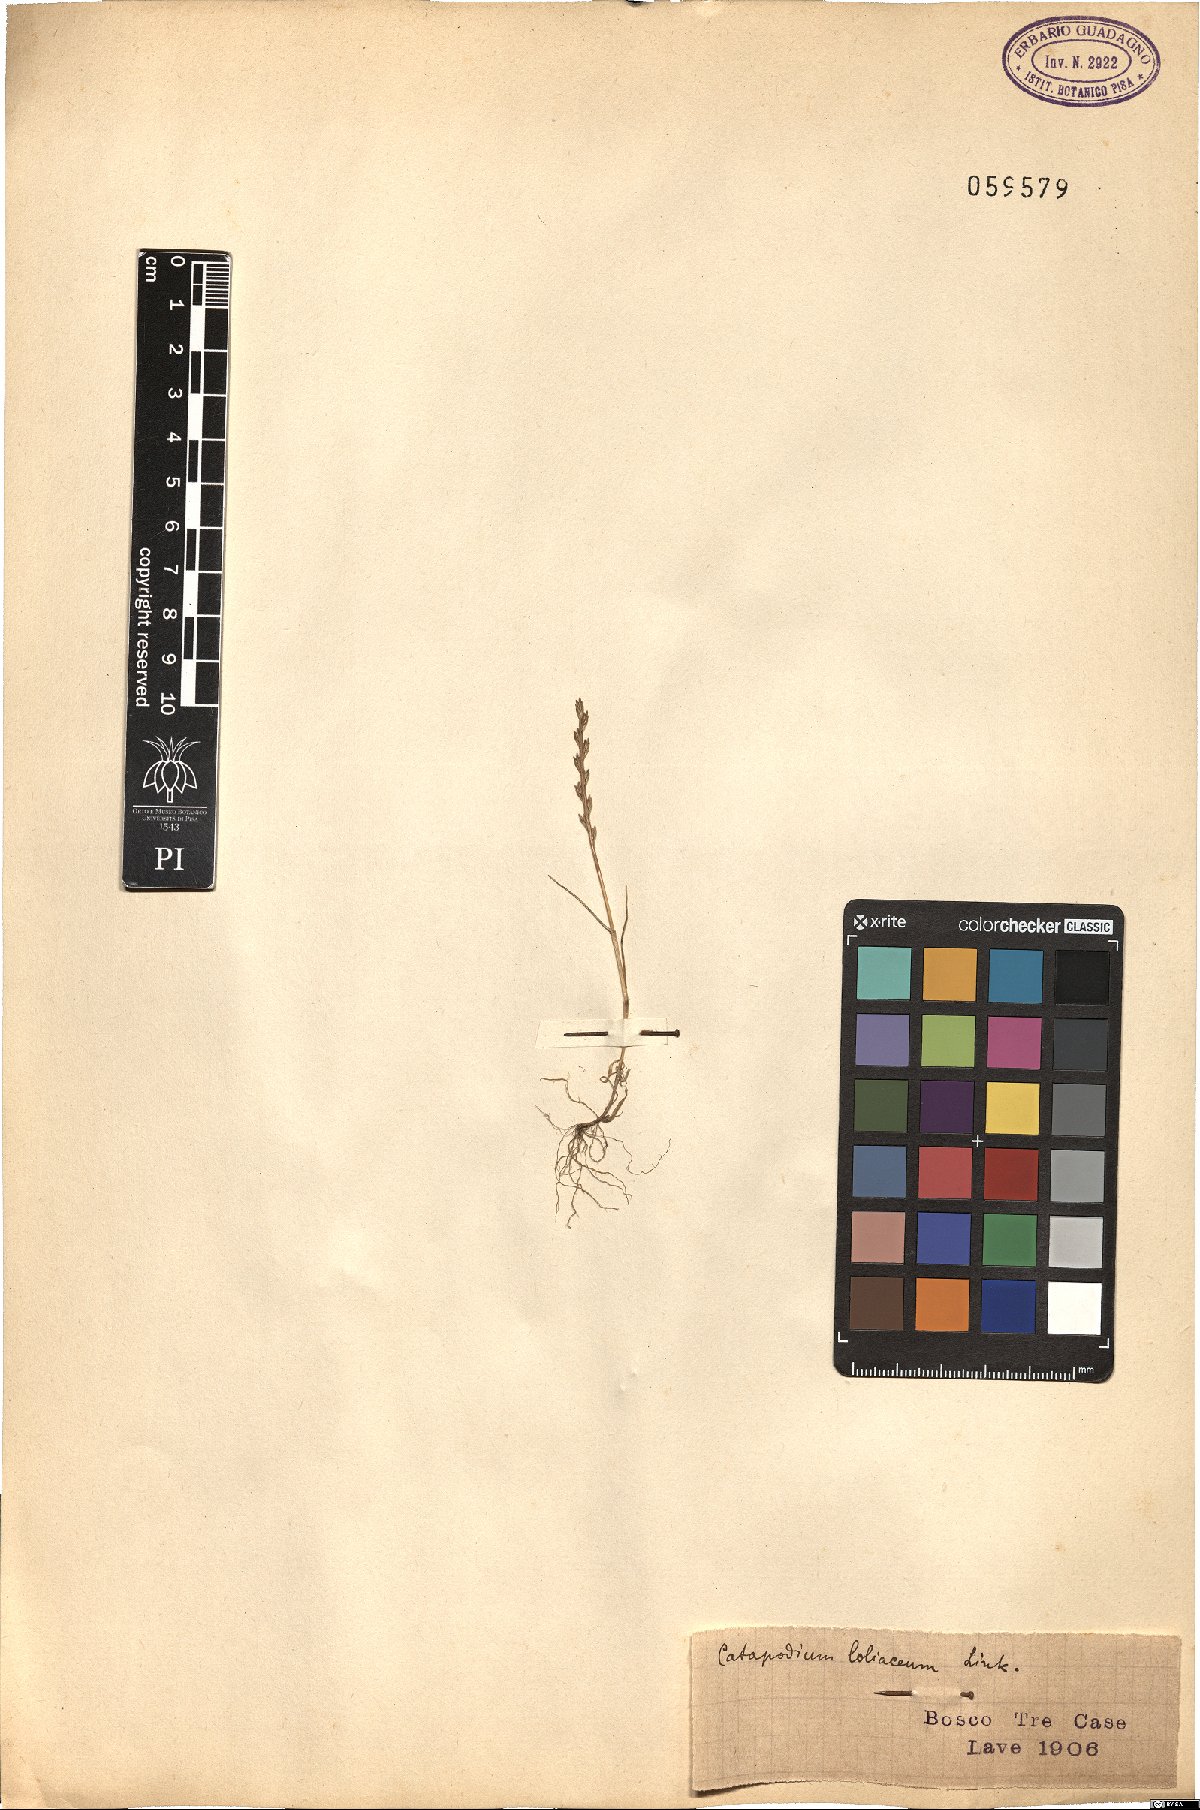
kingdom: Plantae
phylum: Tracheophyta
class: Liliopsida
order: Poales
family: Poaceae
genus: Catapodium
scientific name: Catapodium marinum
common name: Sea fern-grass
